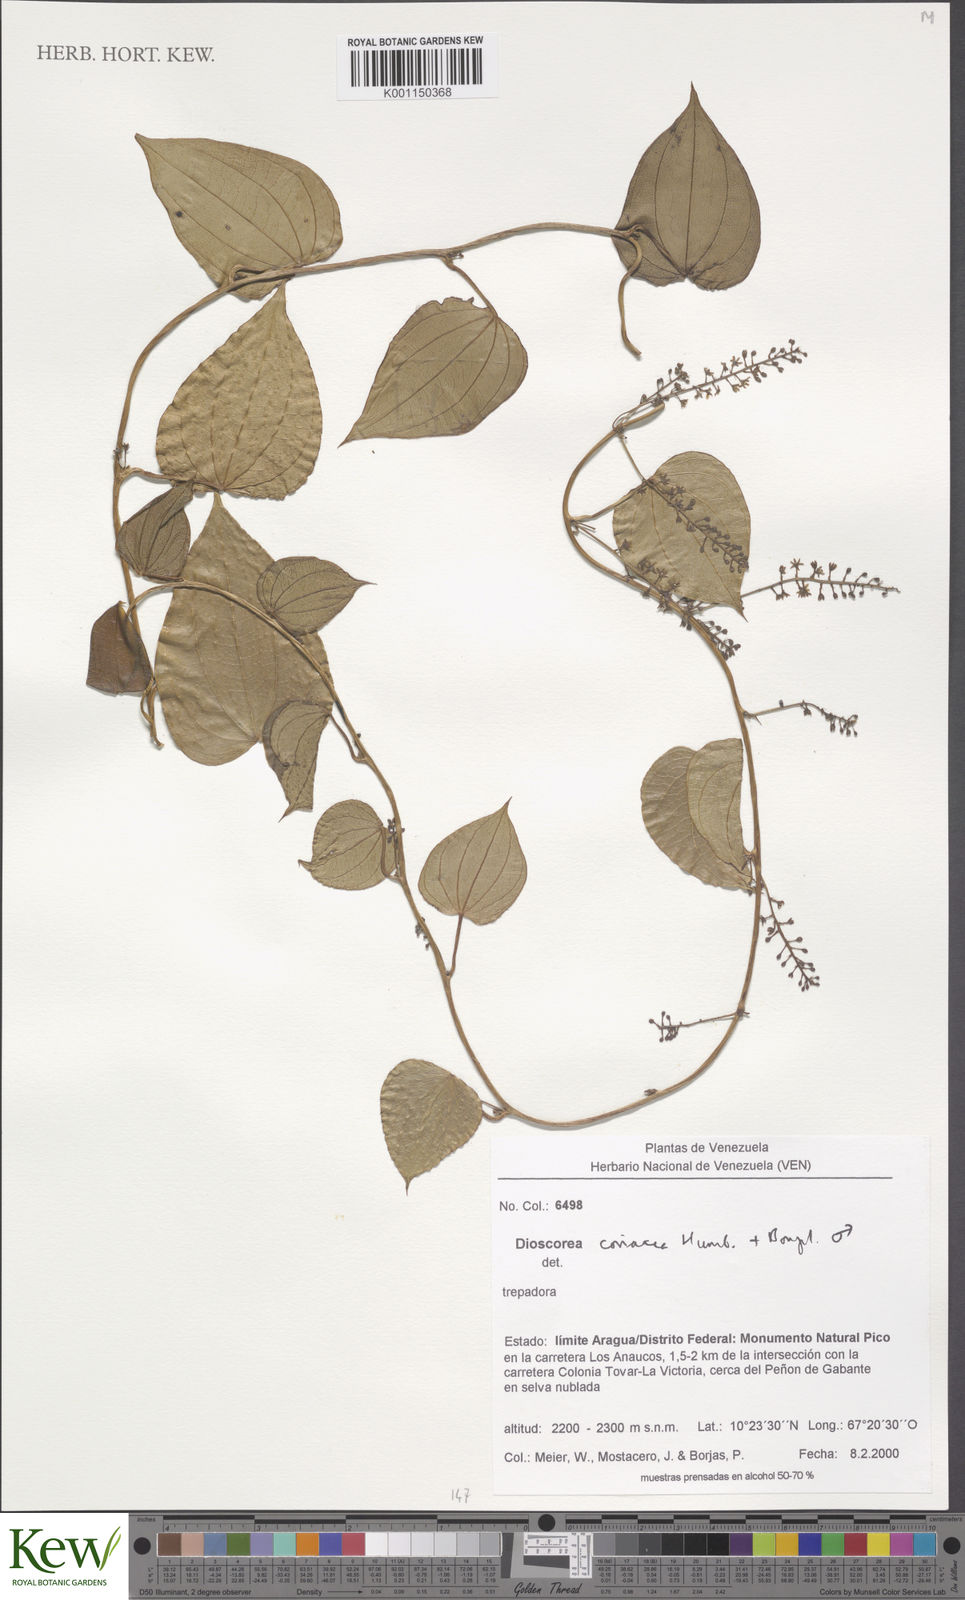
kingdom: Plantae
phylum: Tracheophyta
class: Liliopsida
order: Dioscoreales
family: Dioscoreaceae
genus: Dioscorea
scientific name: Dioscorea coriacea
